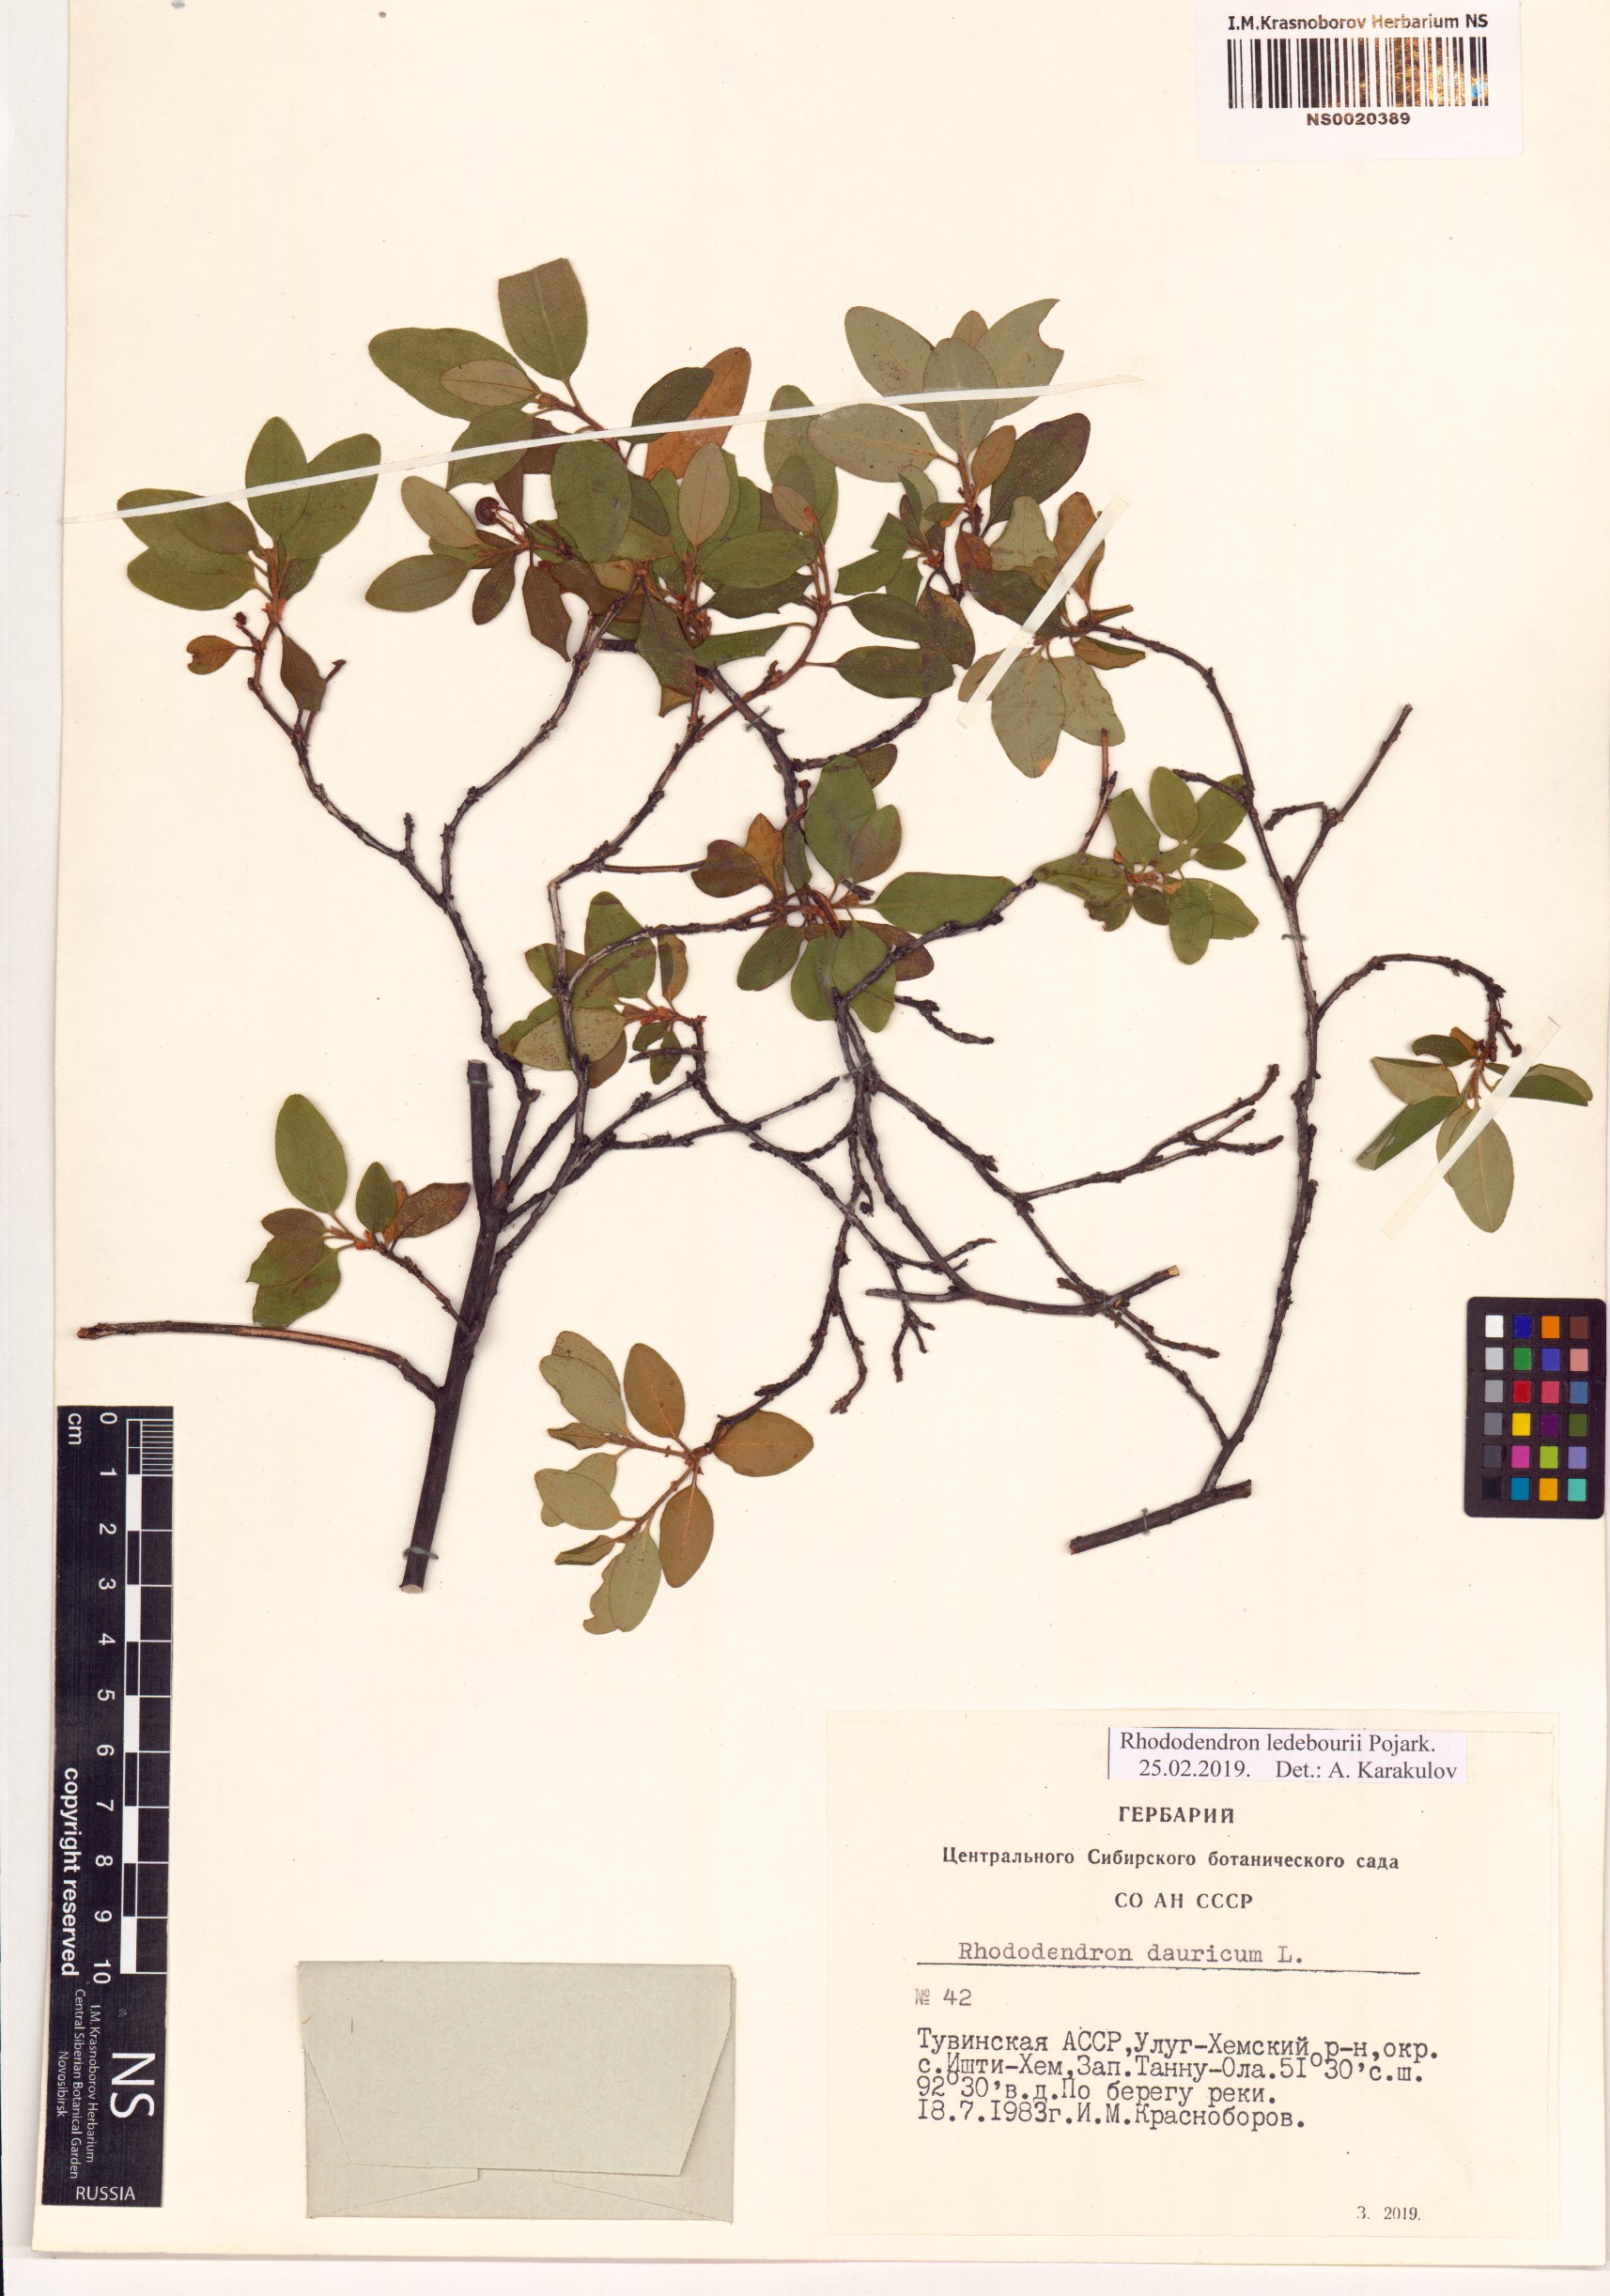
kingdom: Plantae
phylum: Tracheophyta
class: Magnoliopsida
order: Ericales
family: Ericaceae
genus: Rhododendron
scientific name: Rhododendron dauricum
